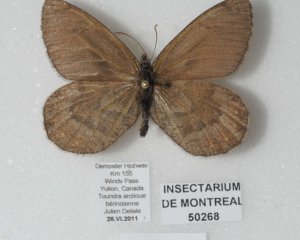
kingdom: Animalia
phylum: Arthropoda
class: Insecta
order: Lepidoptera
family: Nymphalidae
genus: Oeneis
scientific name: Oeneis bore
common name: White-veined Arctic
